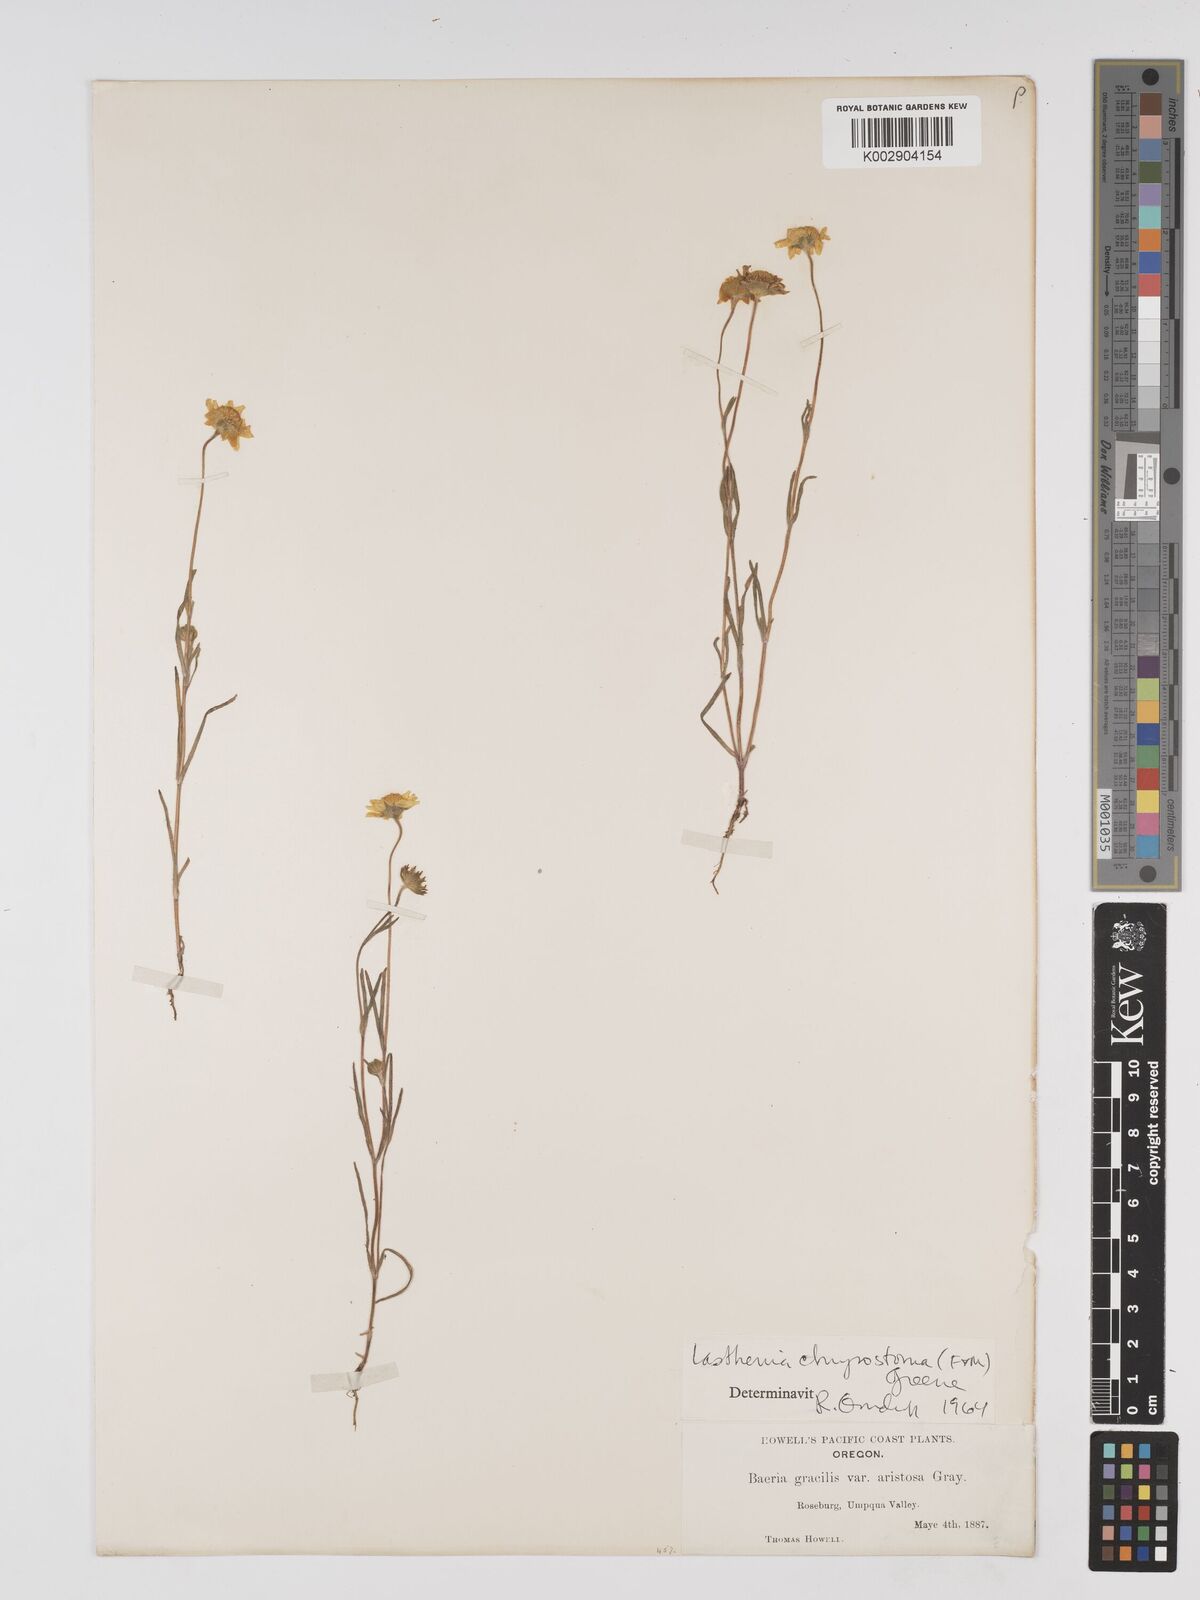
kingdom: Plantae
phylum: Tracheophyta
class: Magnoliopsida
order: Asterales
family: Asteraceae
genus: Lasthenia
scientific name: Lasthenia californica
